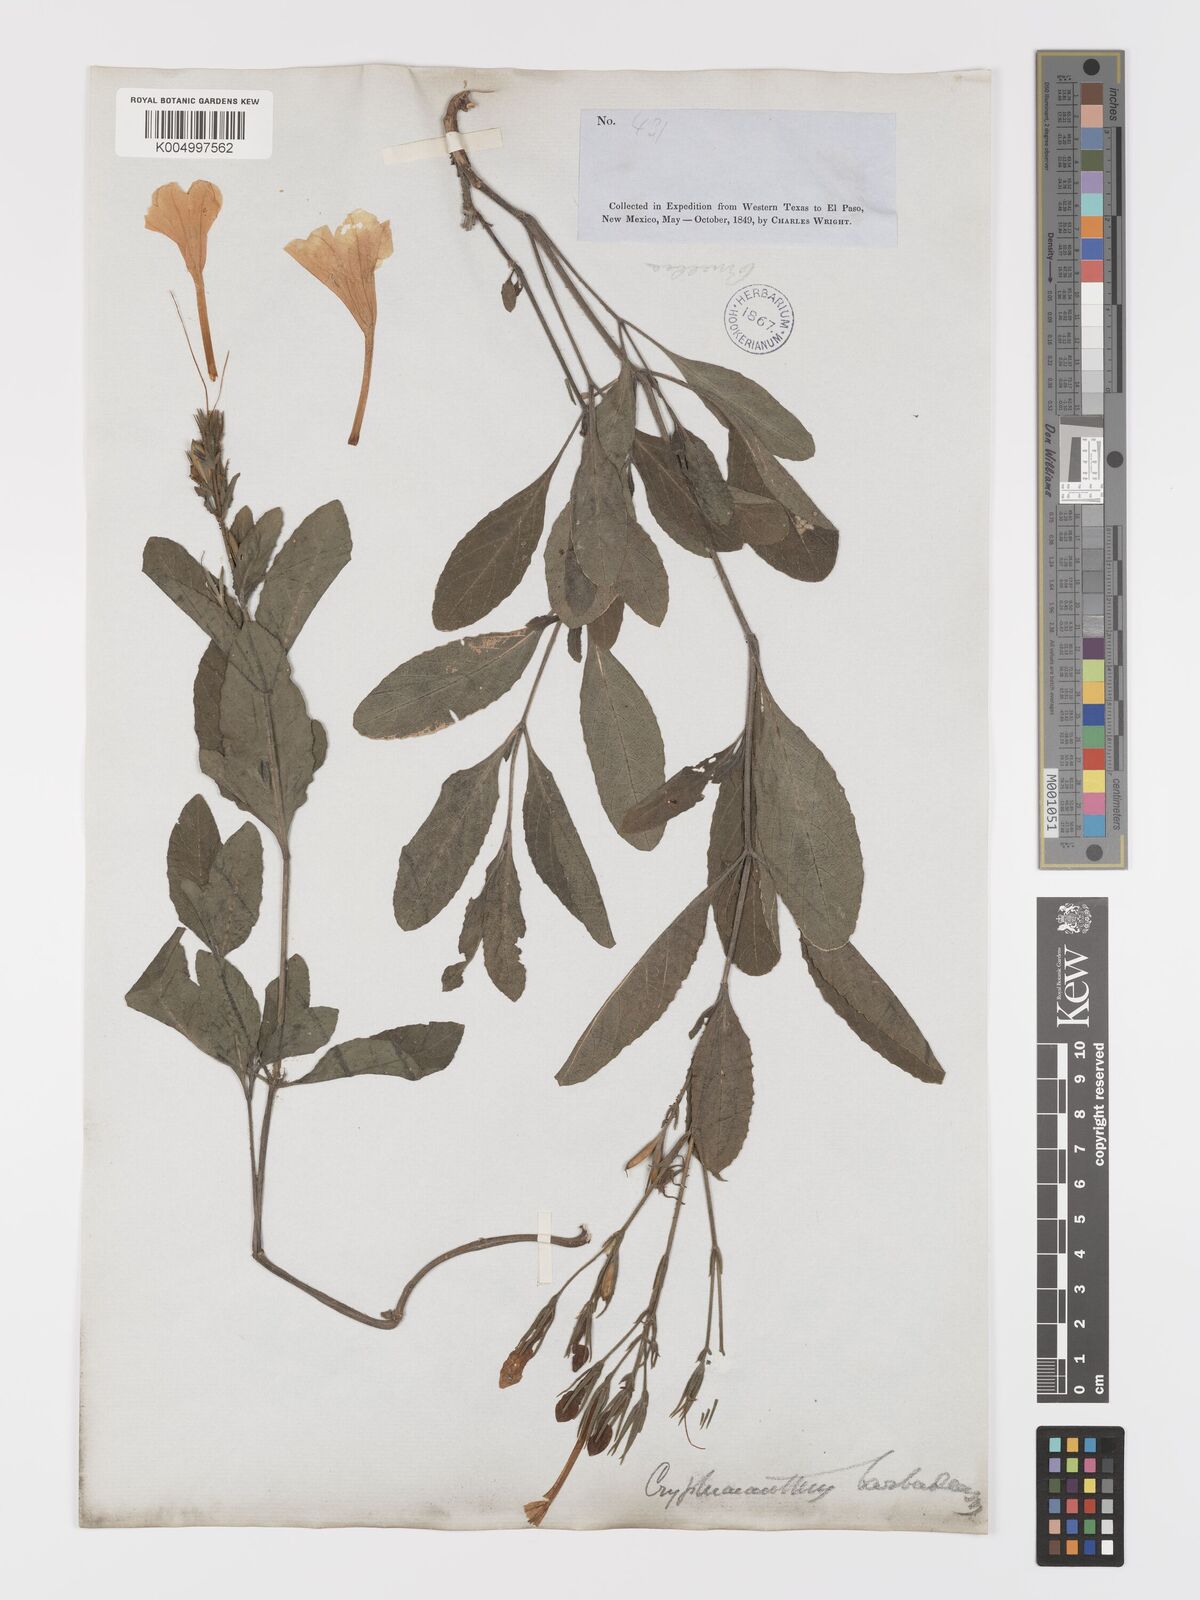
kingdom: Plantae
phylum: Tracheophyta
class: Magnoliopsida
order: Lamiales
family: Acanthaceae
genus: Ruellia
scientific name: Ruellia tuberosa
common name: Devil's bit
